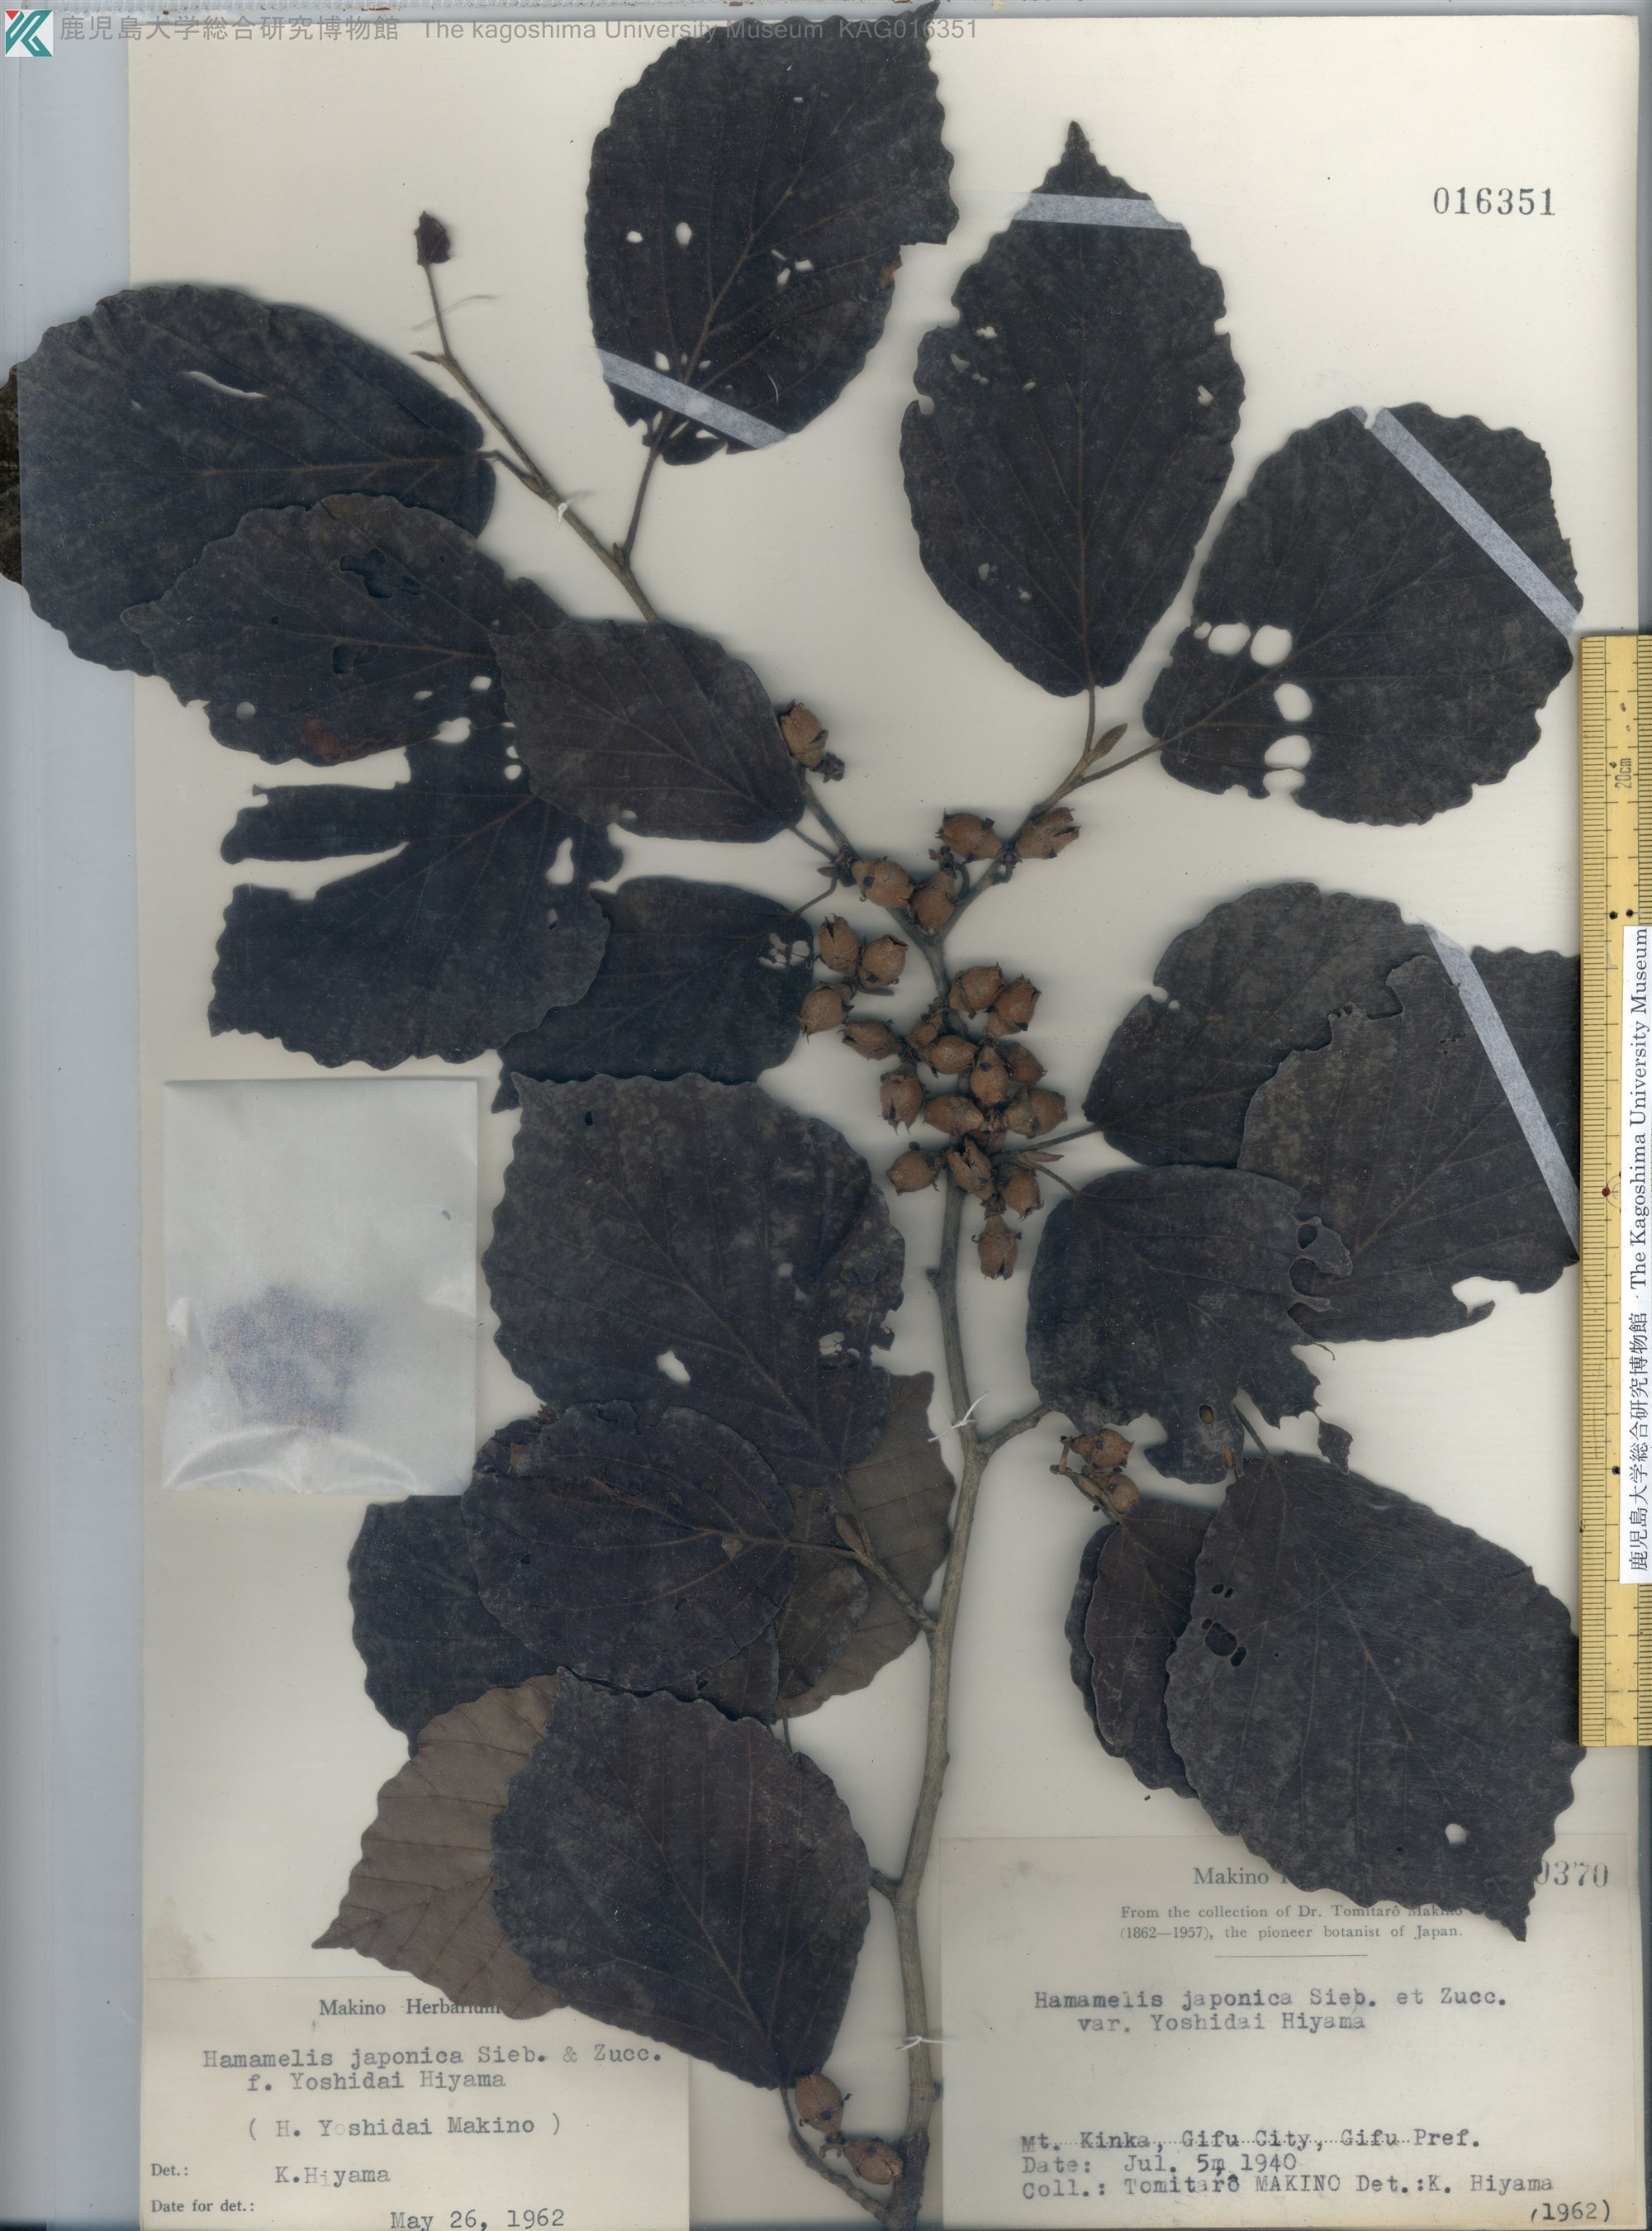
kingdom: Plantae
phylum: Tracheophyta
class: Magnoliopsida
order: Saxifragales
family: Hamamelidaceae
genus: Hamamelis
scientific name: Hamamelis
